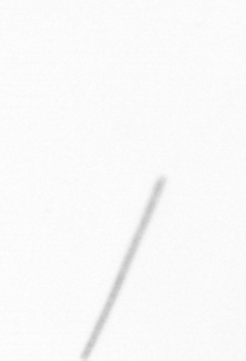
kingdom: Chromista
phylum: Ochrophyta
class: Bacillariophyceae
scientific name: Bacillariophyceae
